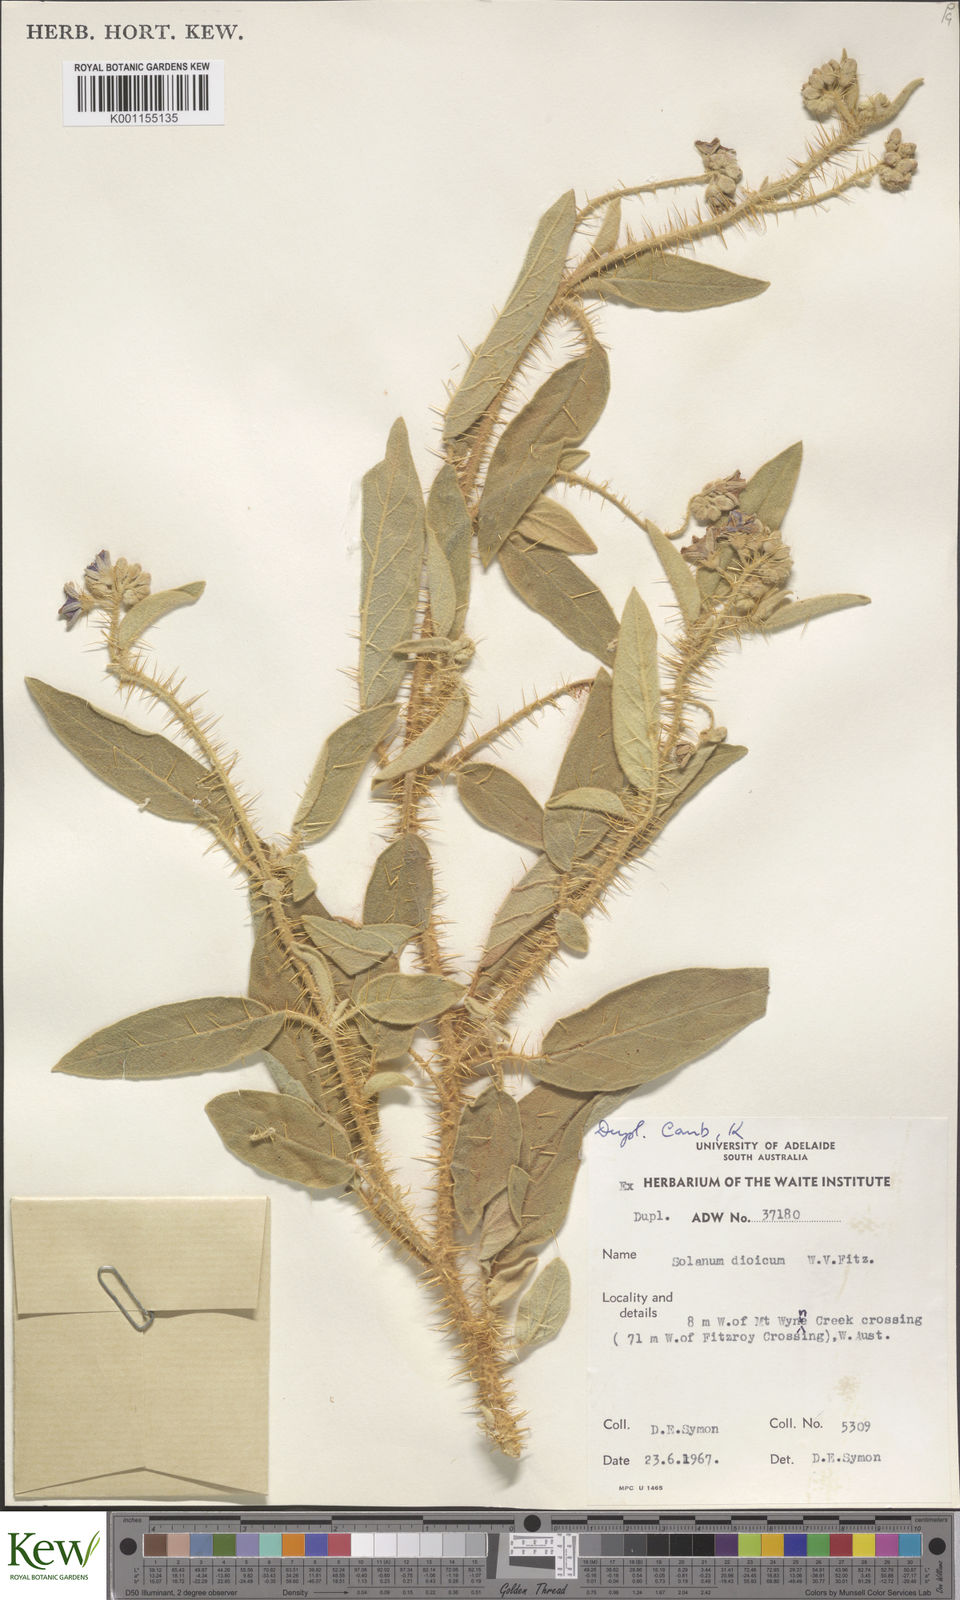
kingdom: Plantae
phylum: Tracheophyta
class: Magnoliopsida
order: Solanales
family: Solanaceae
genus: Solanum
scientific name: Solanum dioicum
